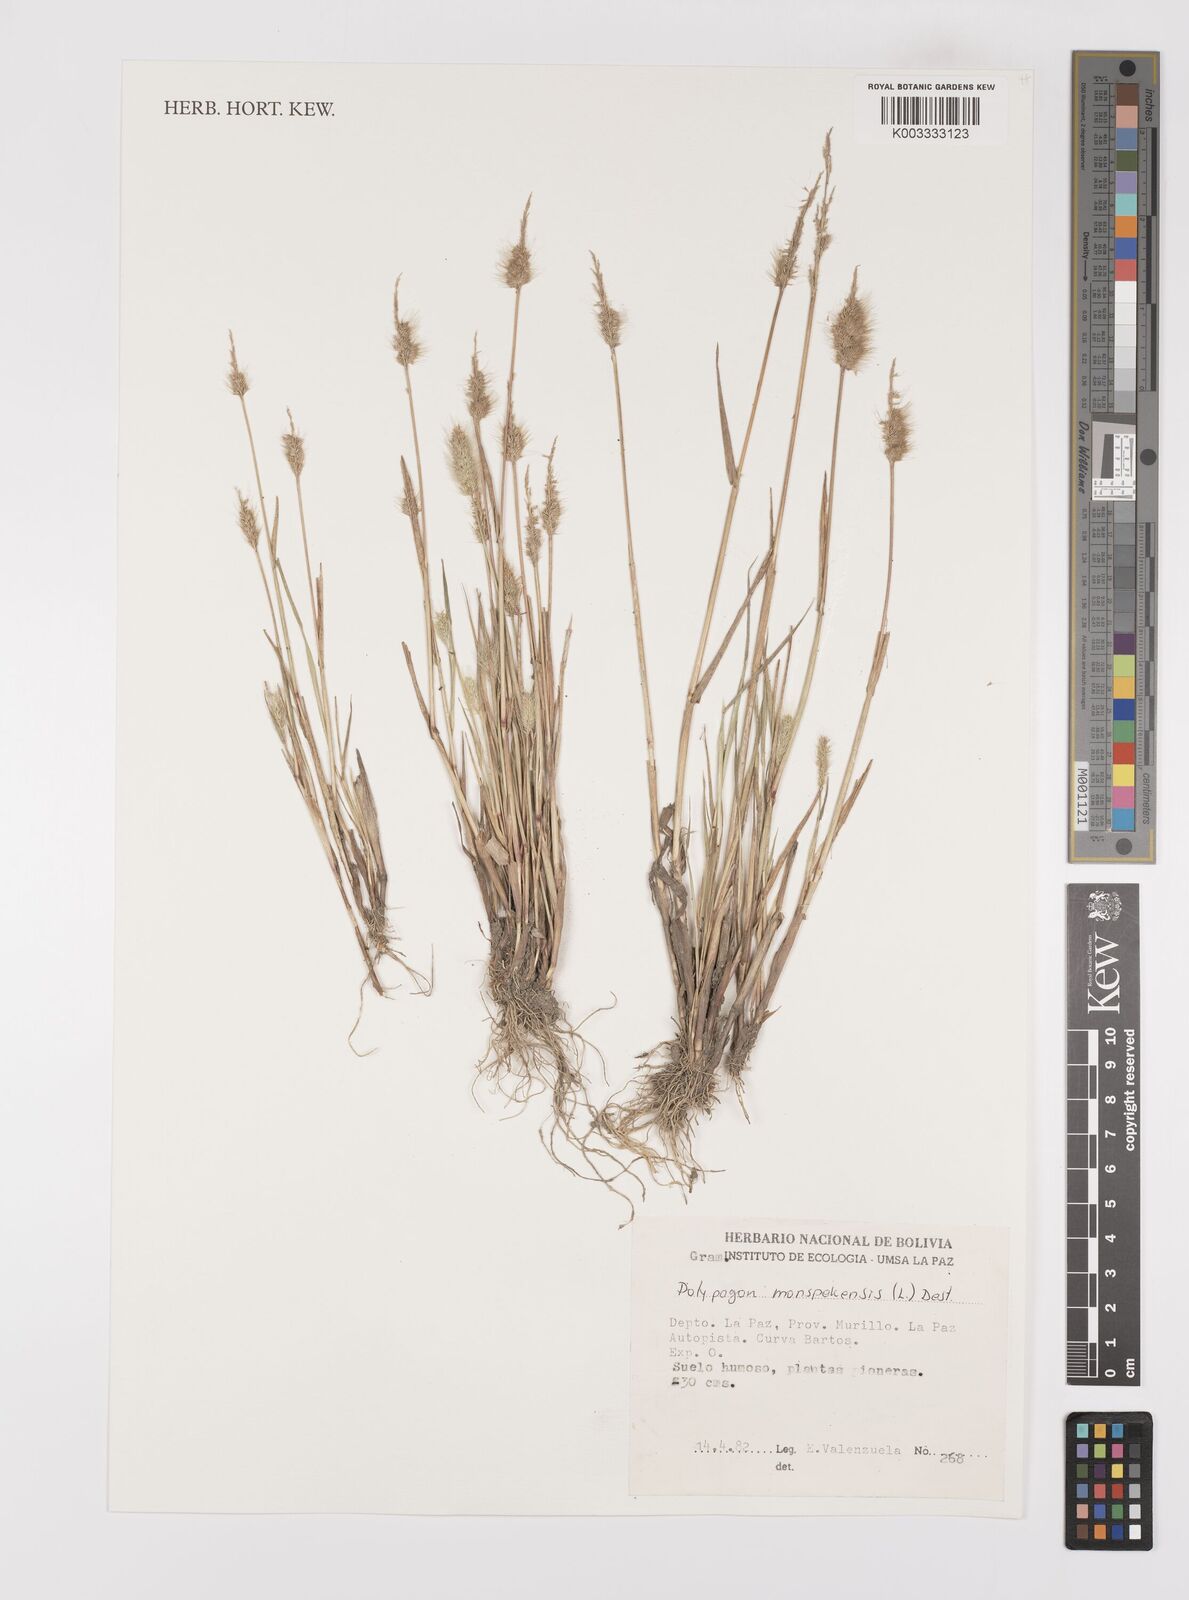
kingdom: Plantae
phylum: Tracheophyta
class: Liliopsida
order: Poales
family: Poaceae
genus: Polypogon
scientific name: Polypogon monspeliensis
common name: Annual rabbitsfoot grass
